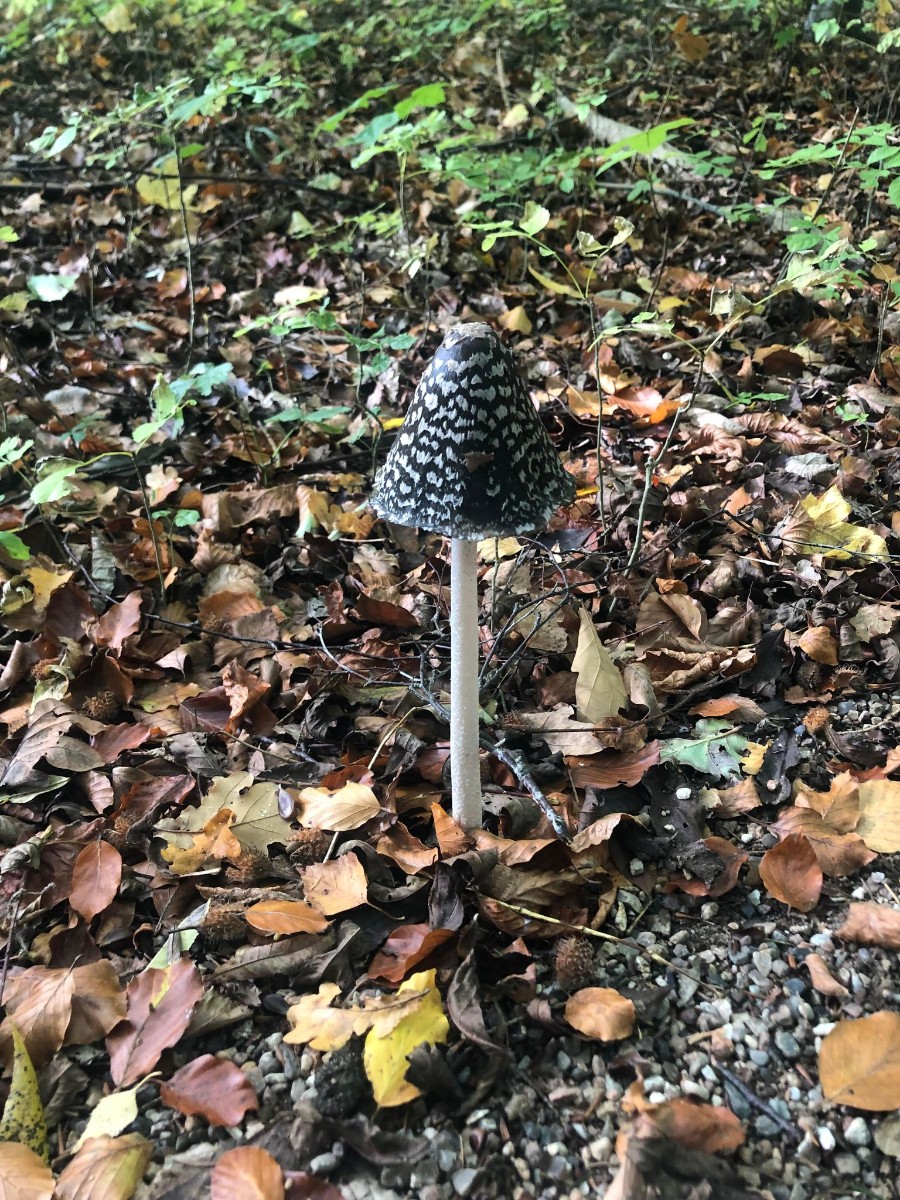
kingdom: Fungi
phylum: Basidiomycota
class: Agaricomycetes
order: Agaricales
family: Psathyrellaceae
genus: Coprinopsis
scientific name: Coprinopsis picacea
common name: skade-blækhat
